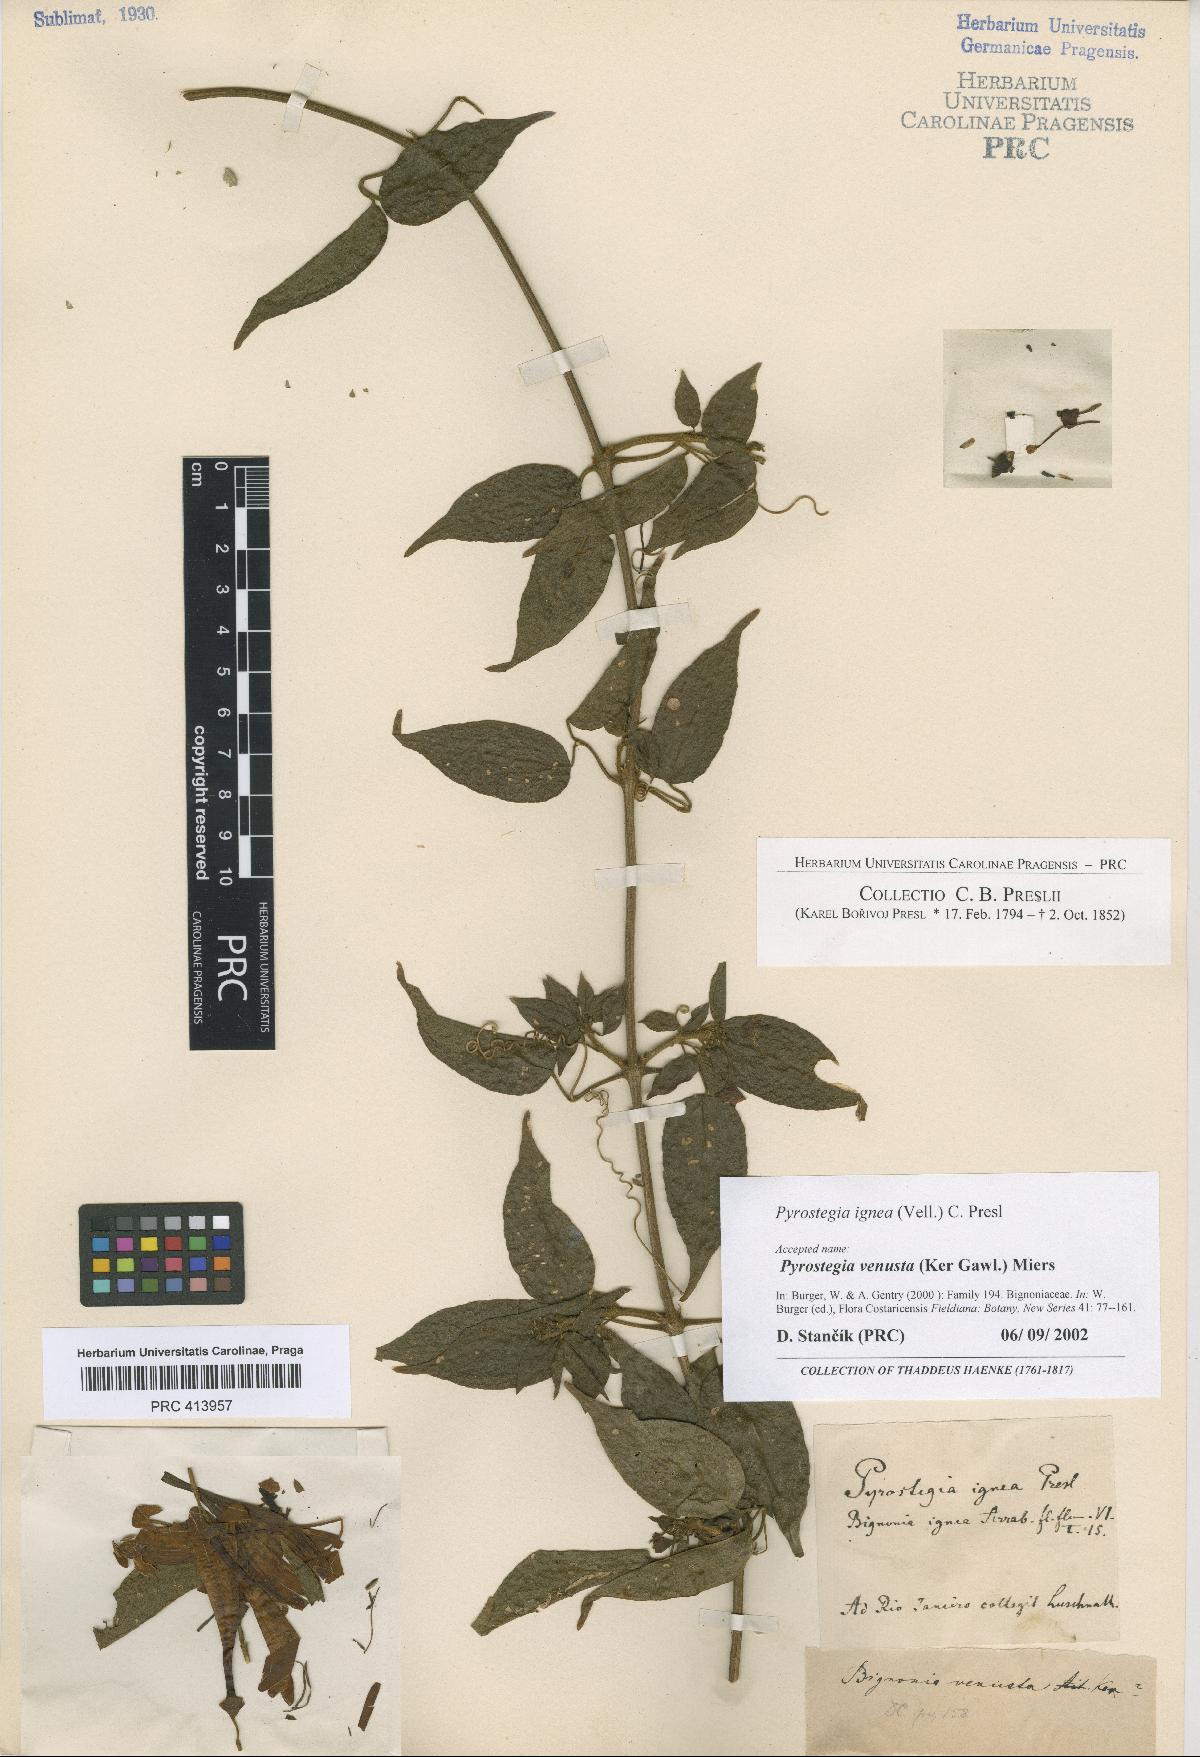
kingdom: Plantae
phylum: Tracheophyta
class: Magnoliopsida
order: Lamiales
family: Bignoniaceae
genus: Pyrostegia
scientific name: Pyrostegia venusta
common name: Flamevine
